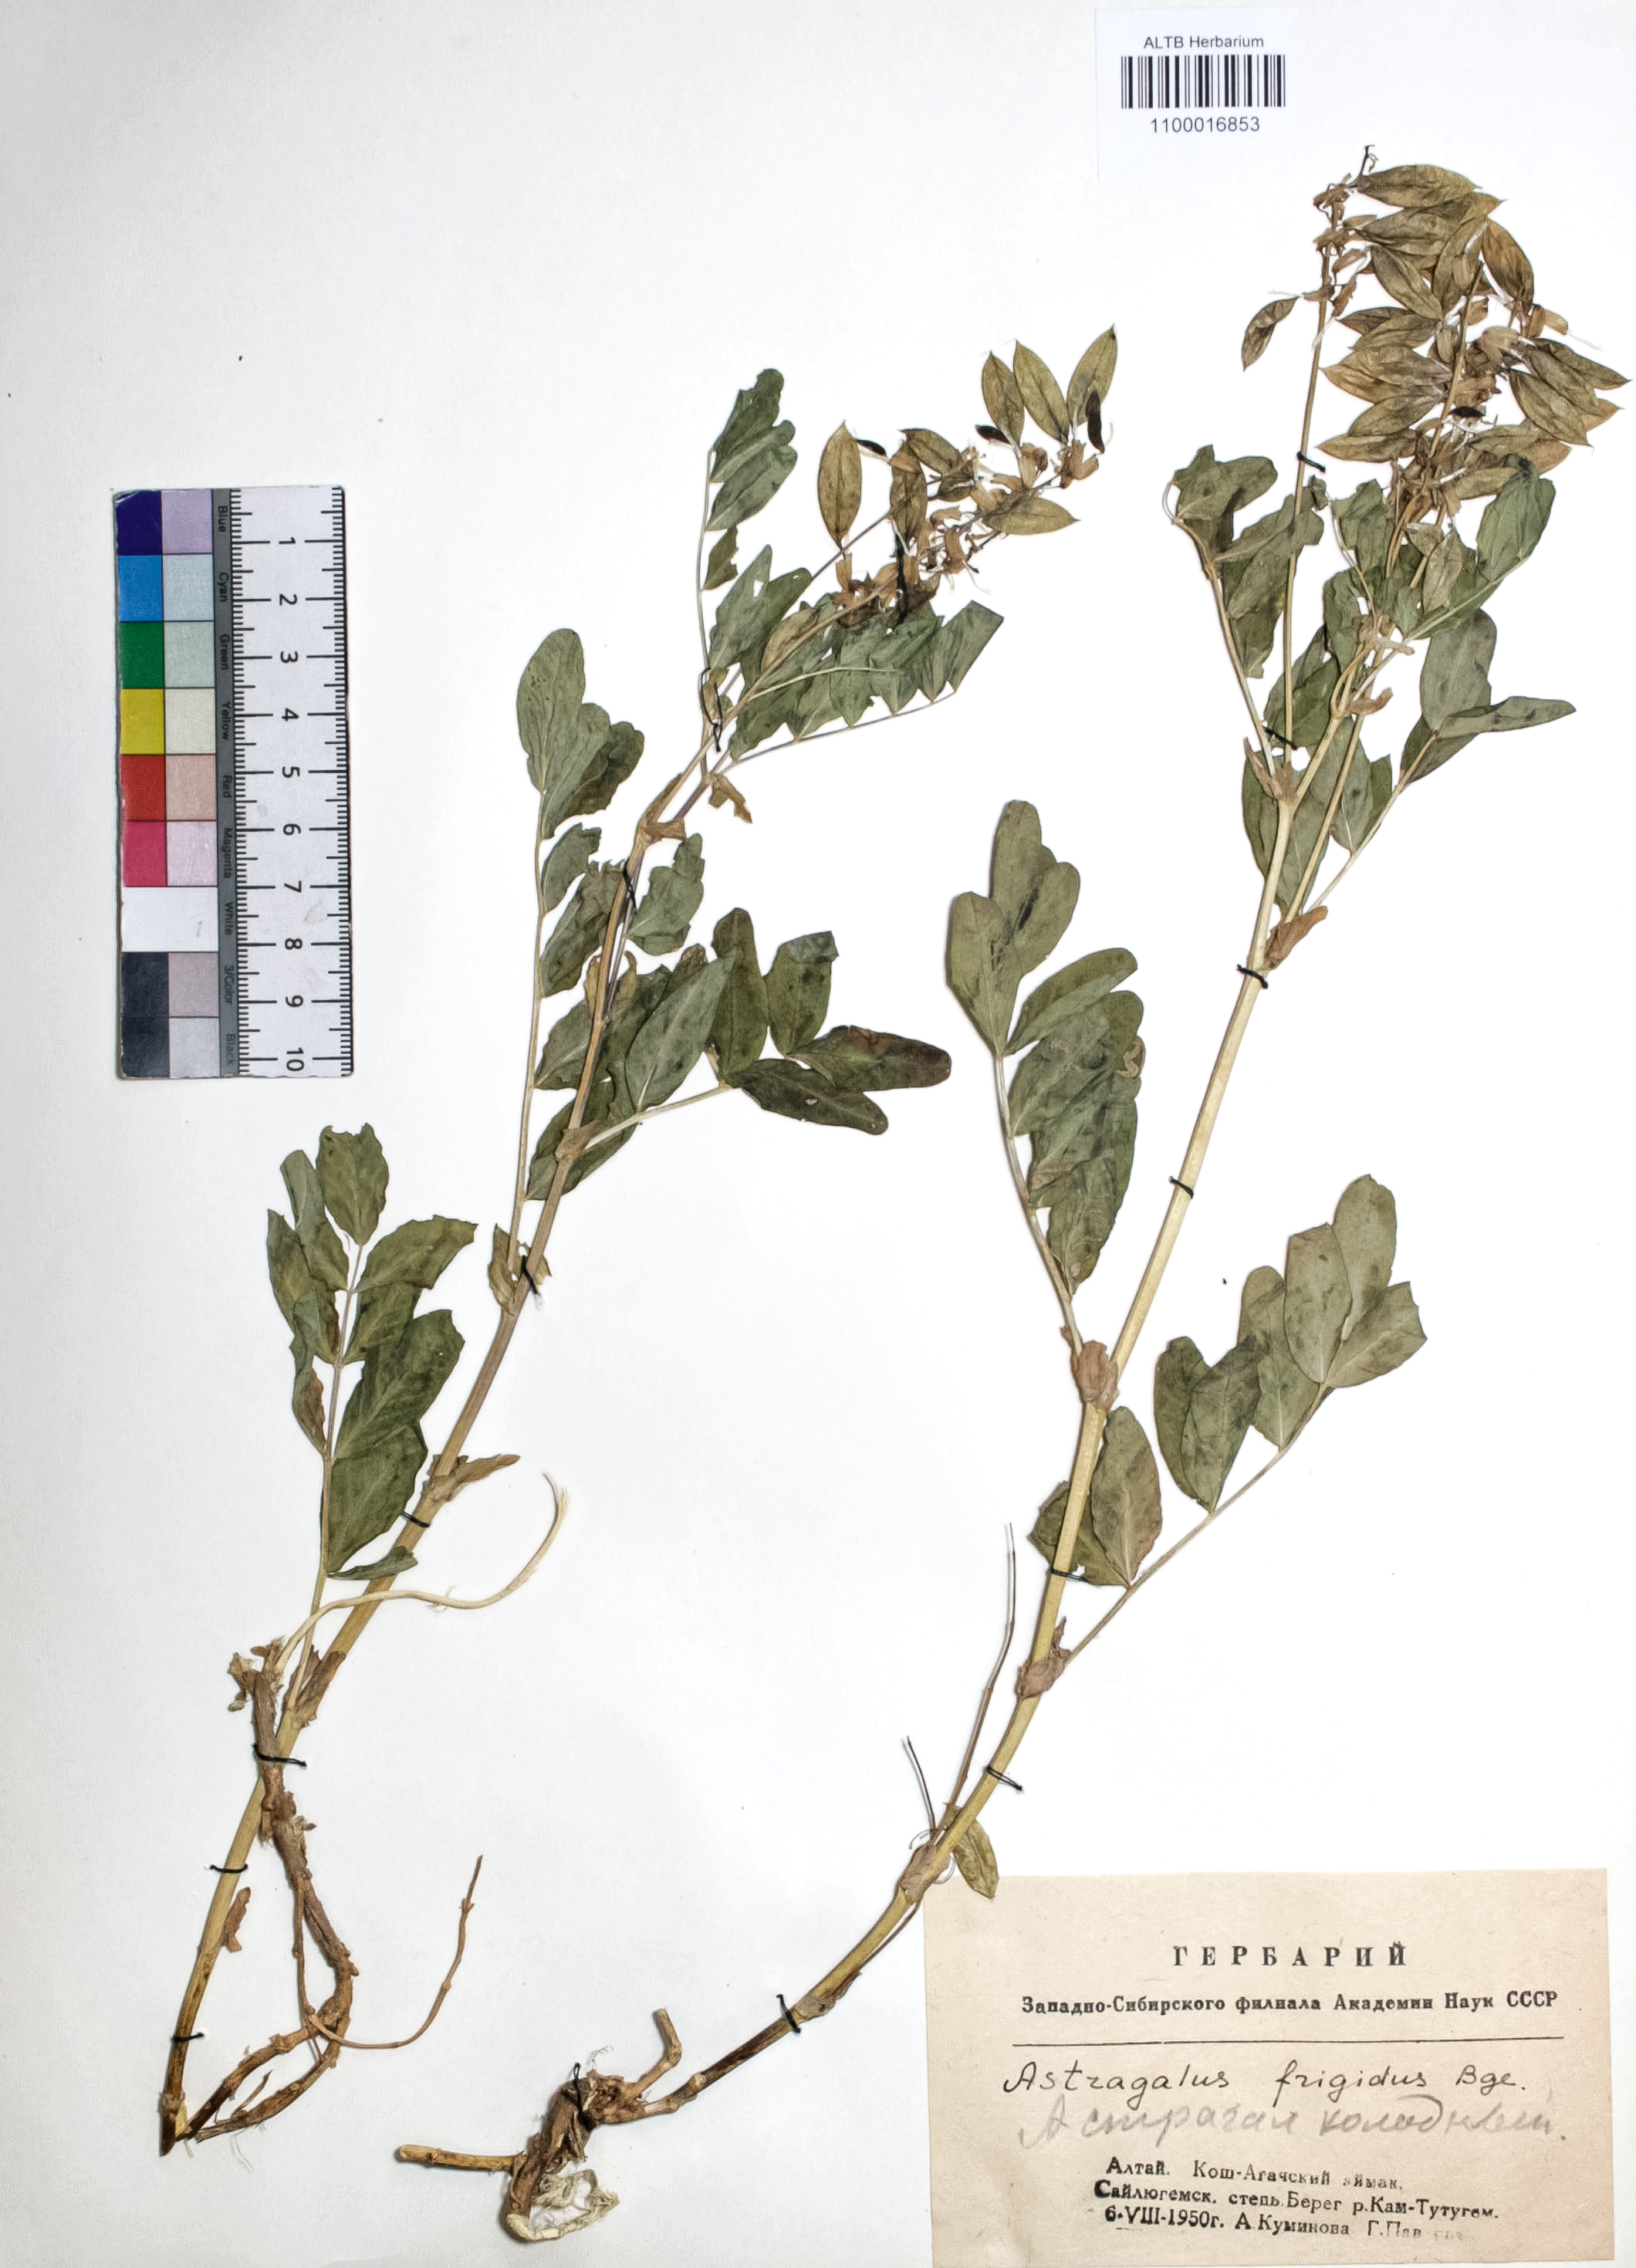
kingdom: Plantae
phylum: Tracheophyta
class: Magnoliopsida
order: Fabales
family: Fabaceae
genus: Astragalus
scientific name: Astragalus frigidus
